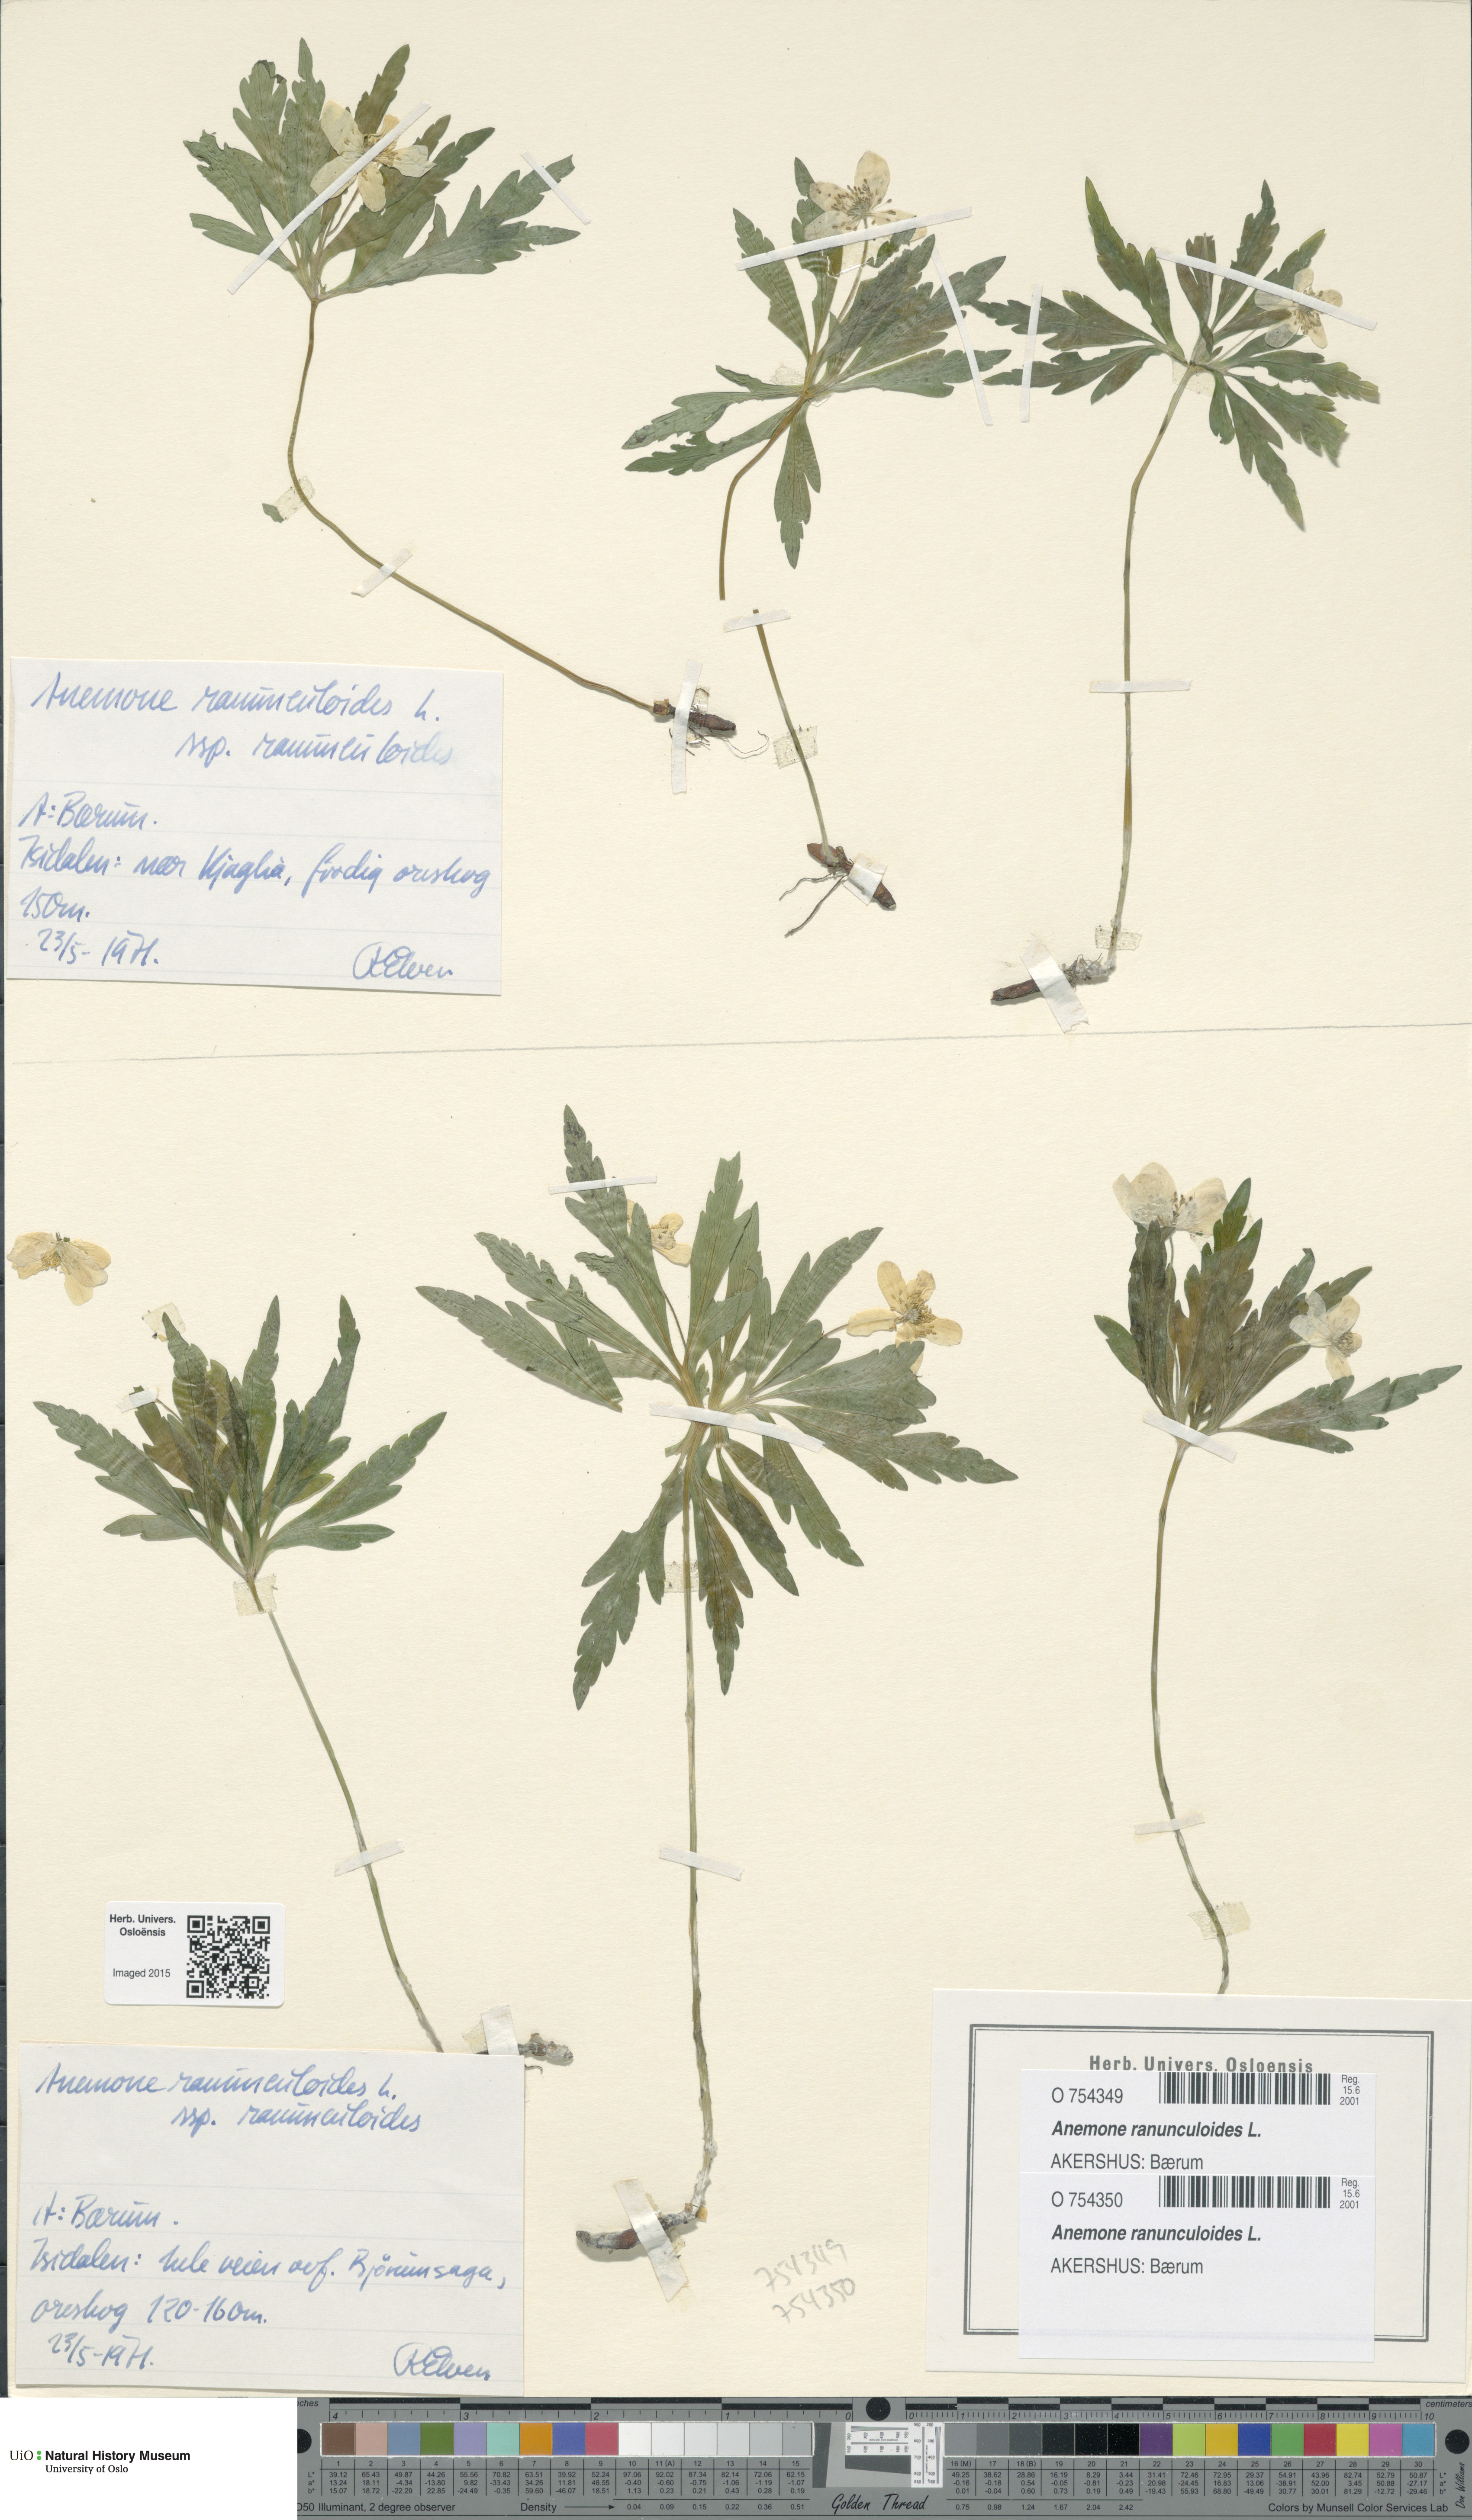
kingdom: Plantae
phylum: Tracheophyta
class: Magnoliopsida
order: Ranunculales
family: Ranunculaceae
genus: Anemone
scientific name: Anemone ranunculoides
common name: Yellow anemone
